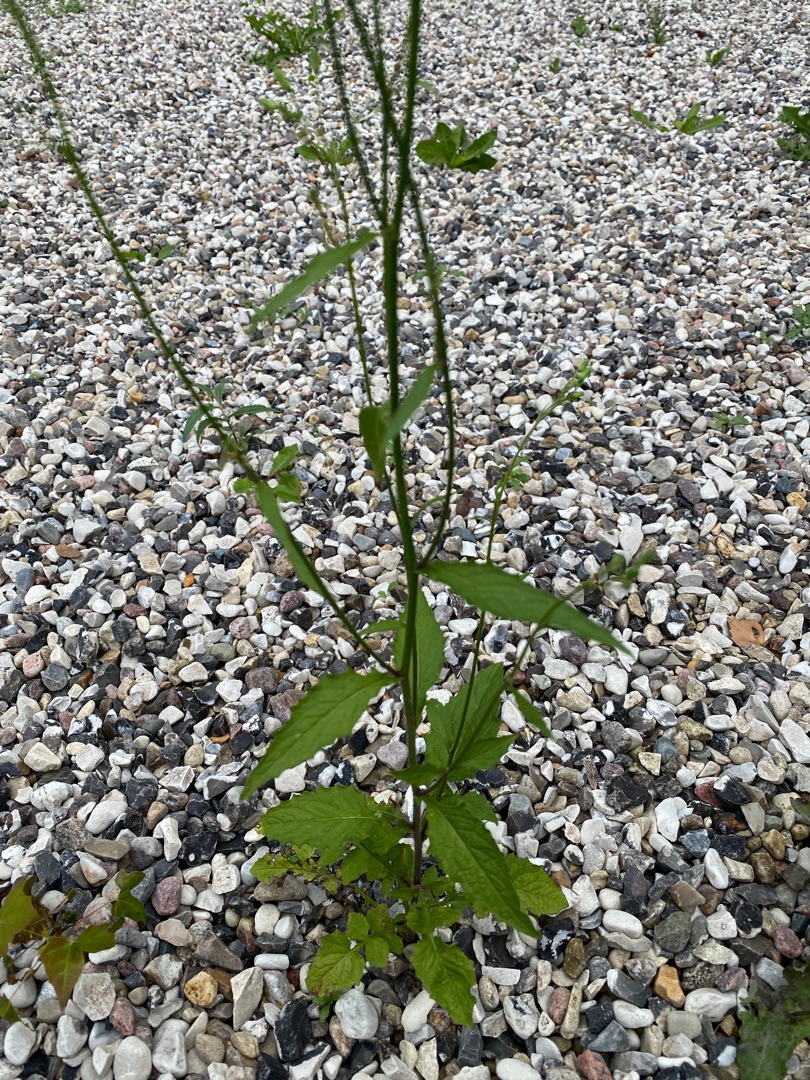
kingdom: Plantae
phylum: Tracheophyta
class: Magnoliopsida
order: Asterales
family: Asteraceae
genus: Lapsana
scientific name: Lapsana communis
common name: Haremad
